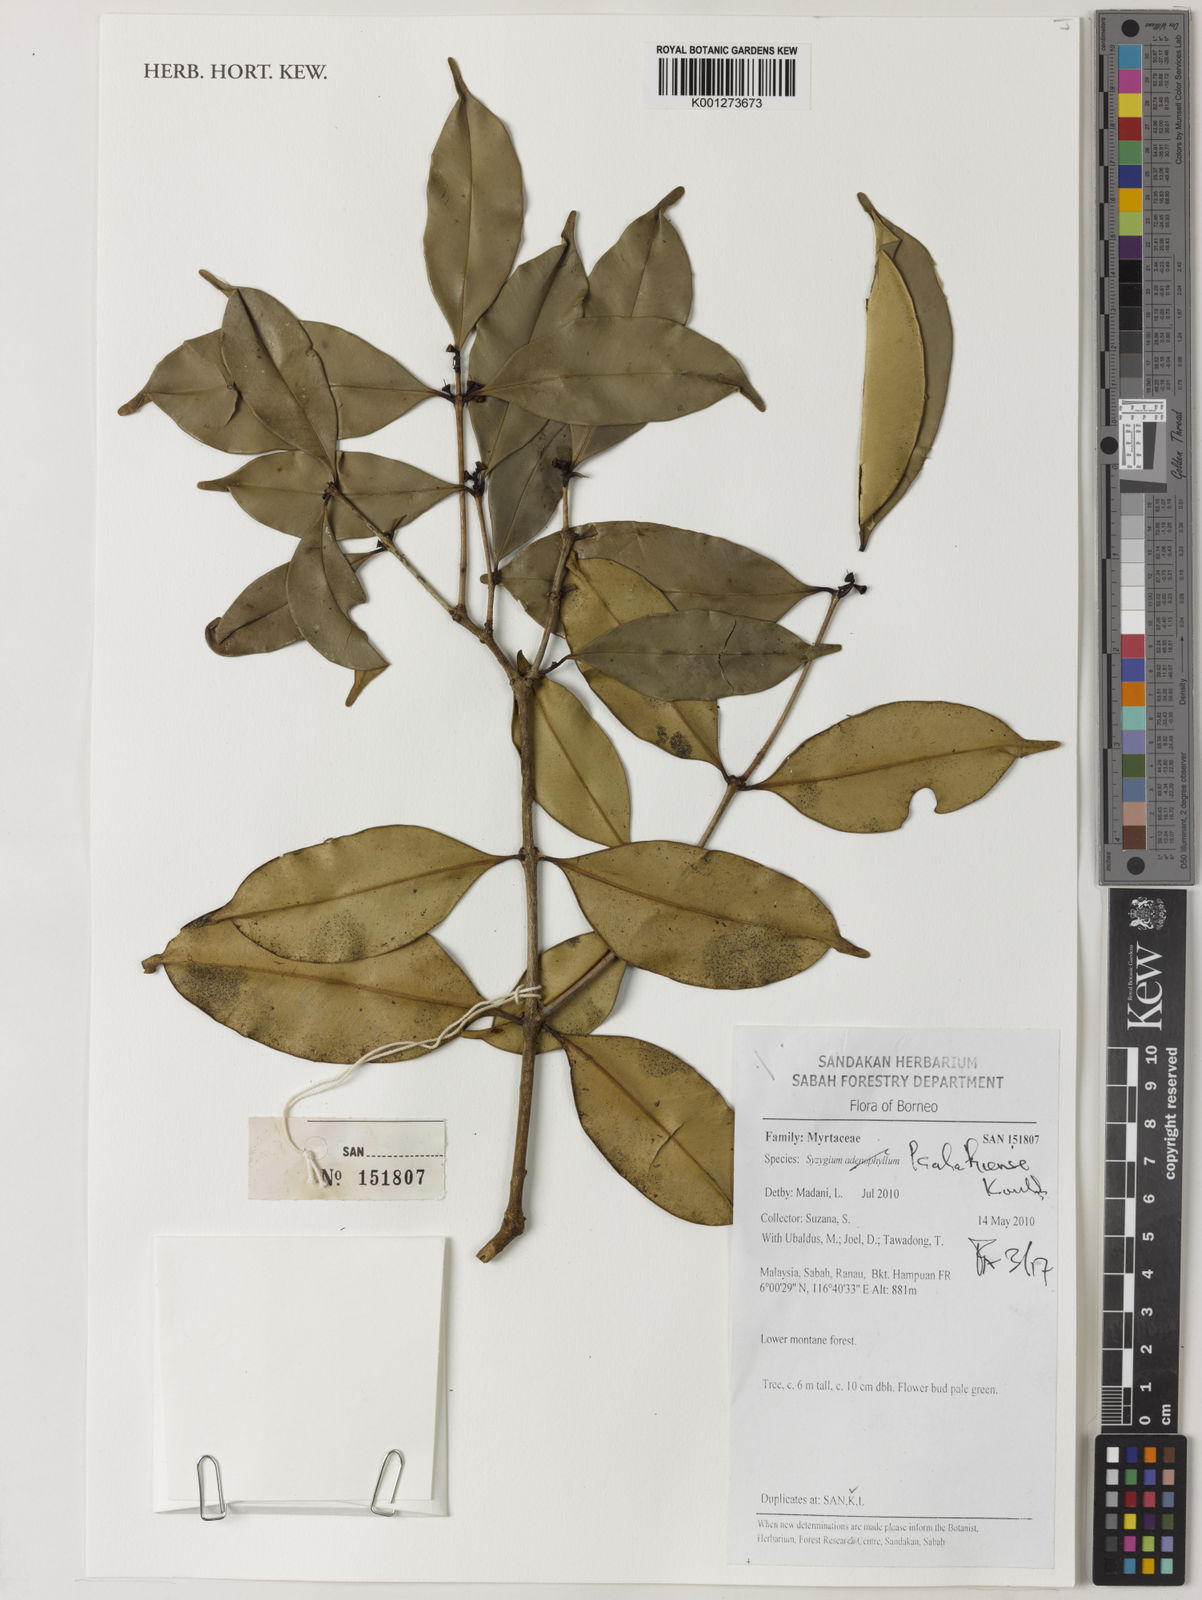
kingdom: Plantae
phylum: Tracheophyta
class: Magnoliopsida
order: Myrtales
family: Myrtaceae
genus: Syzygium
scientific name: Syzygium kalahiense
